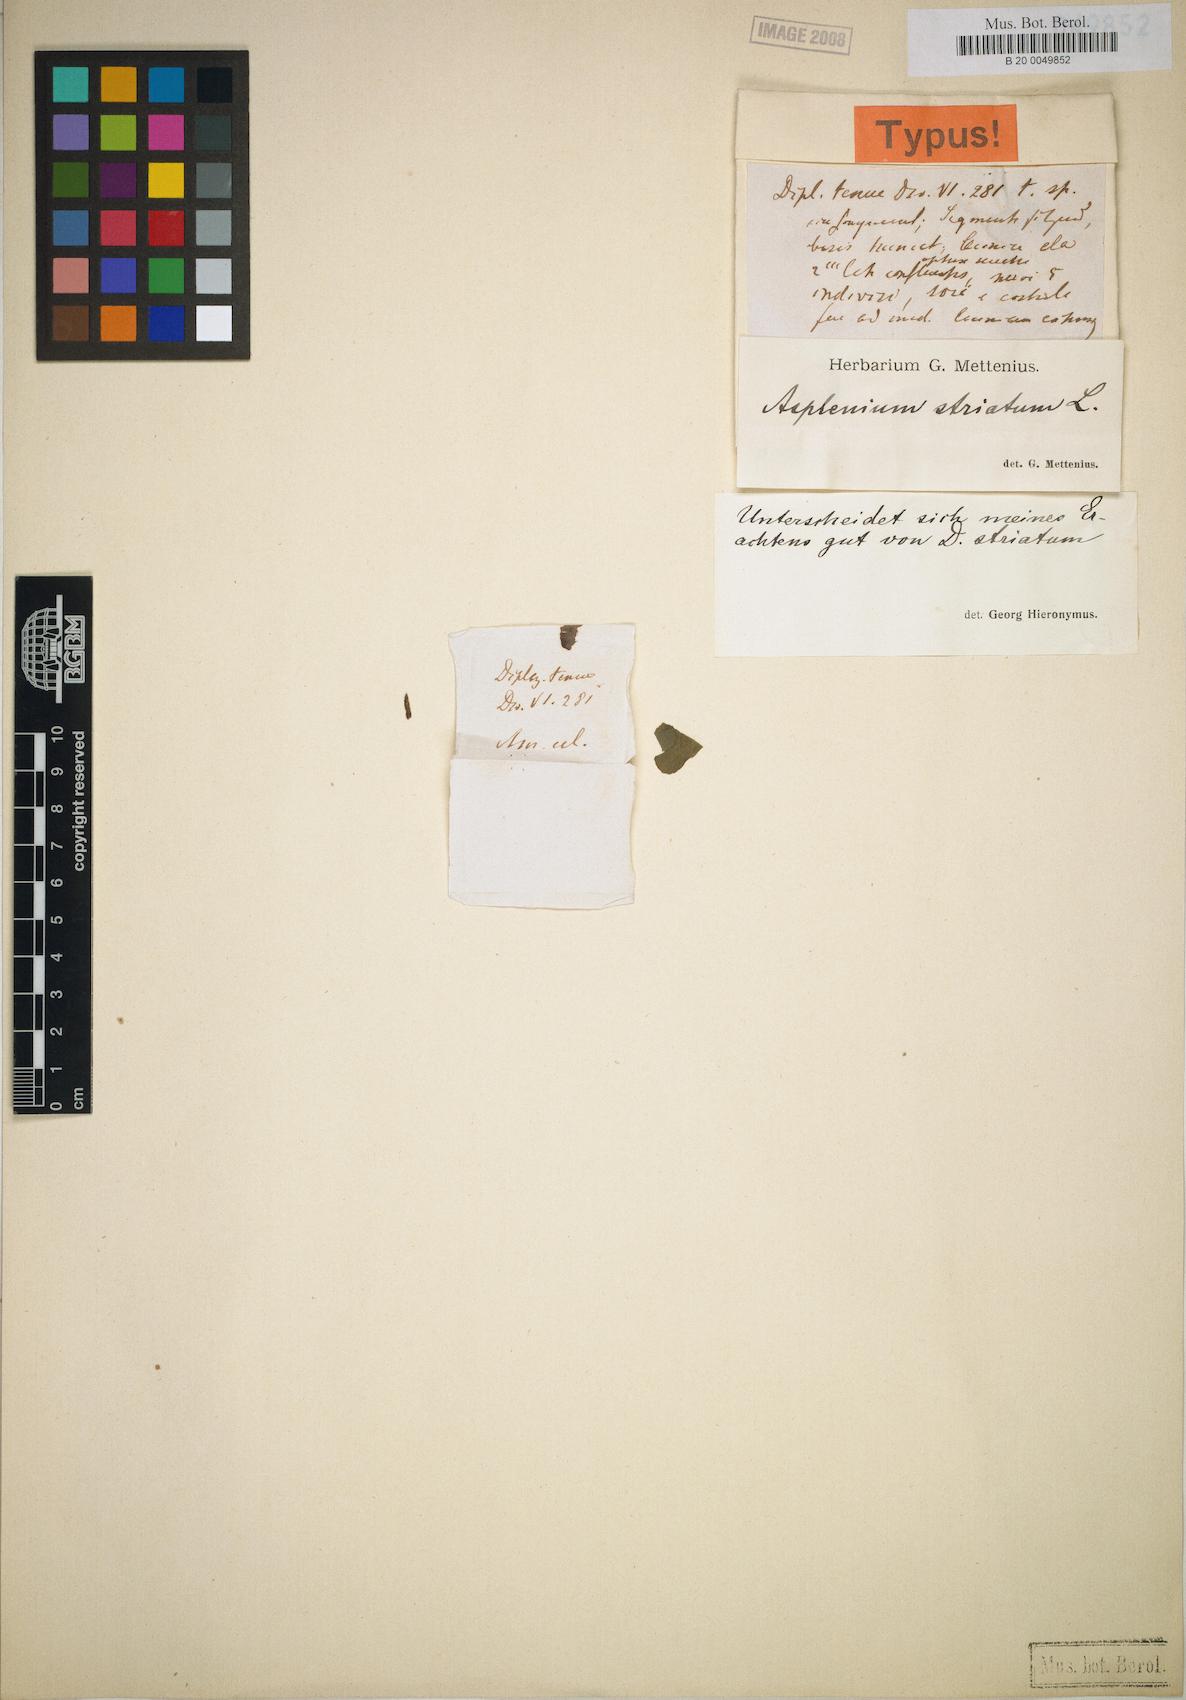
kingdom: Plantae
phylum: Tracheophyta
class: Polypodiopsida
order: Polypodiales
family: Athyriaceae
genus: Diplazium
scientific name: Diplazium striatum
